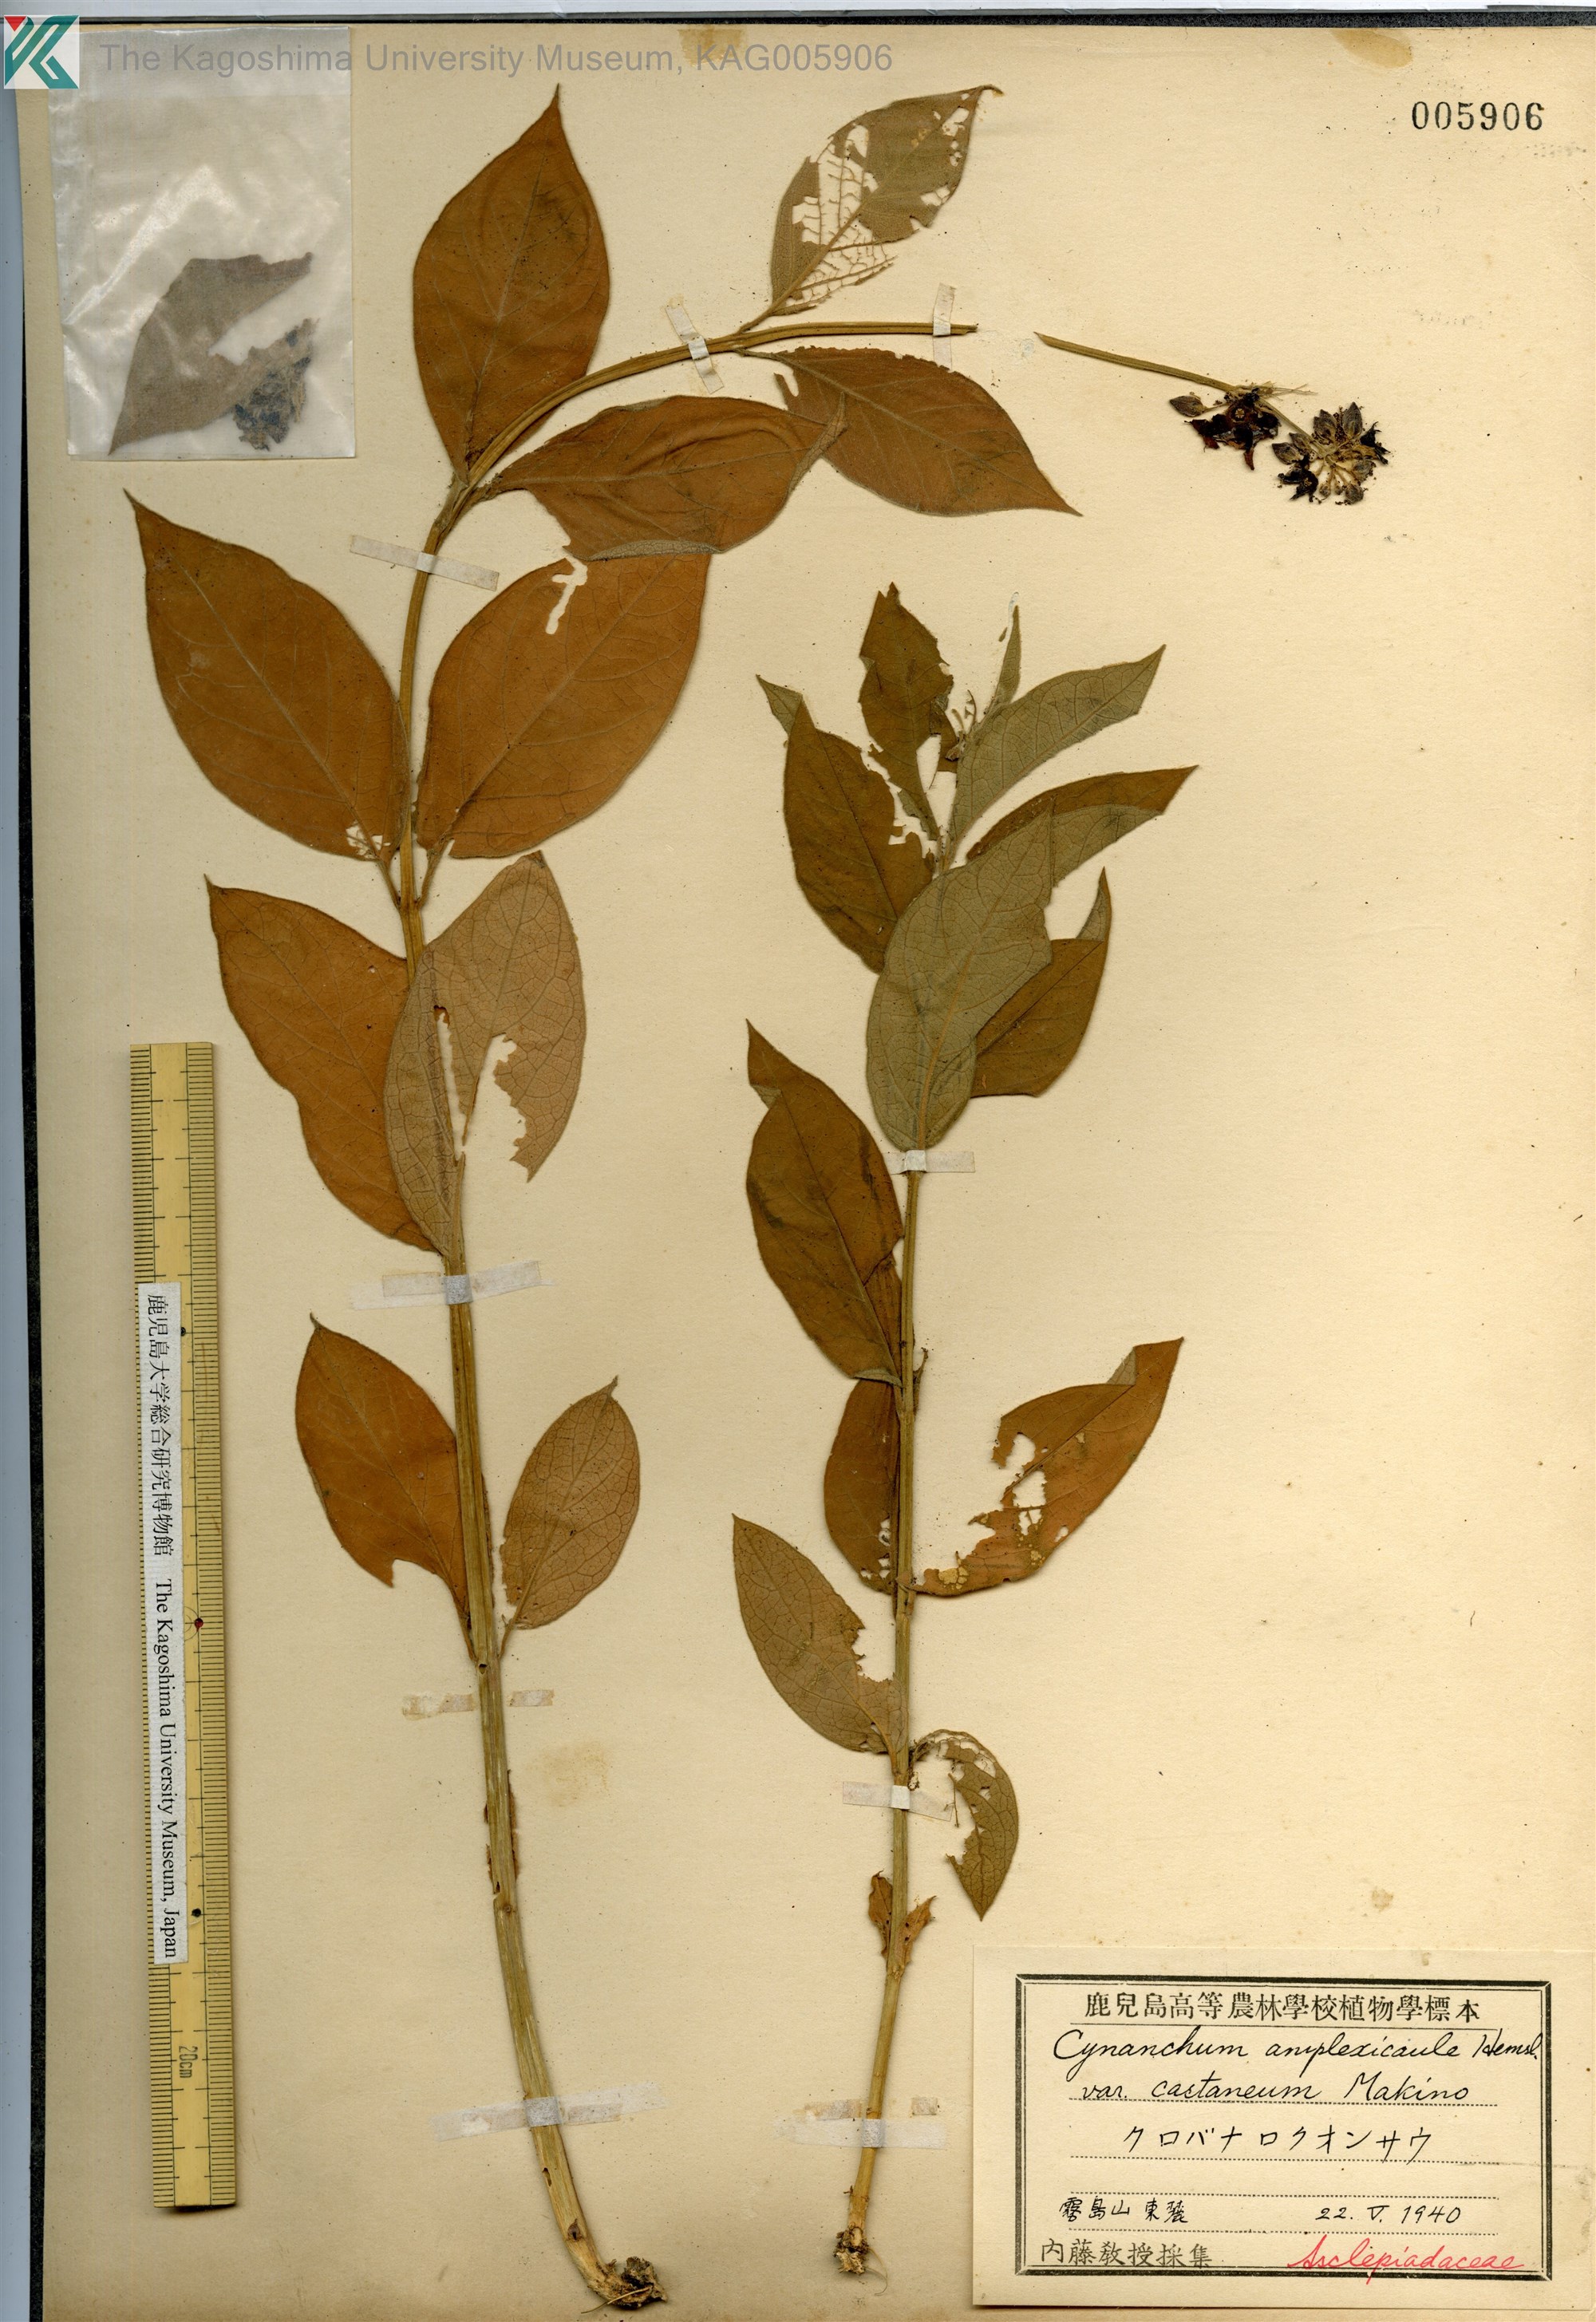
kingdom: Plantae
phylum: Tracheophyta
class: Magnoliopsida
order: Gentianales
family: Apocynaceae
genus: Vincetoxicum
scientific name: Vincetoxicum atratum
